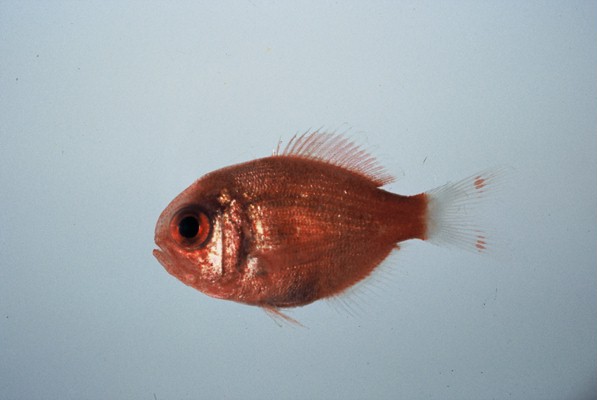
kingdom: Animalia
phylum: Chordata
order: Beryciformes
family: Berycidae
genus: Centroberyx
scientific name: Centroberyx spinosus
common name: Short alfonsino
